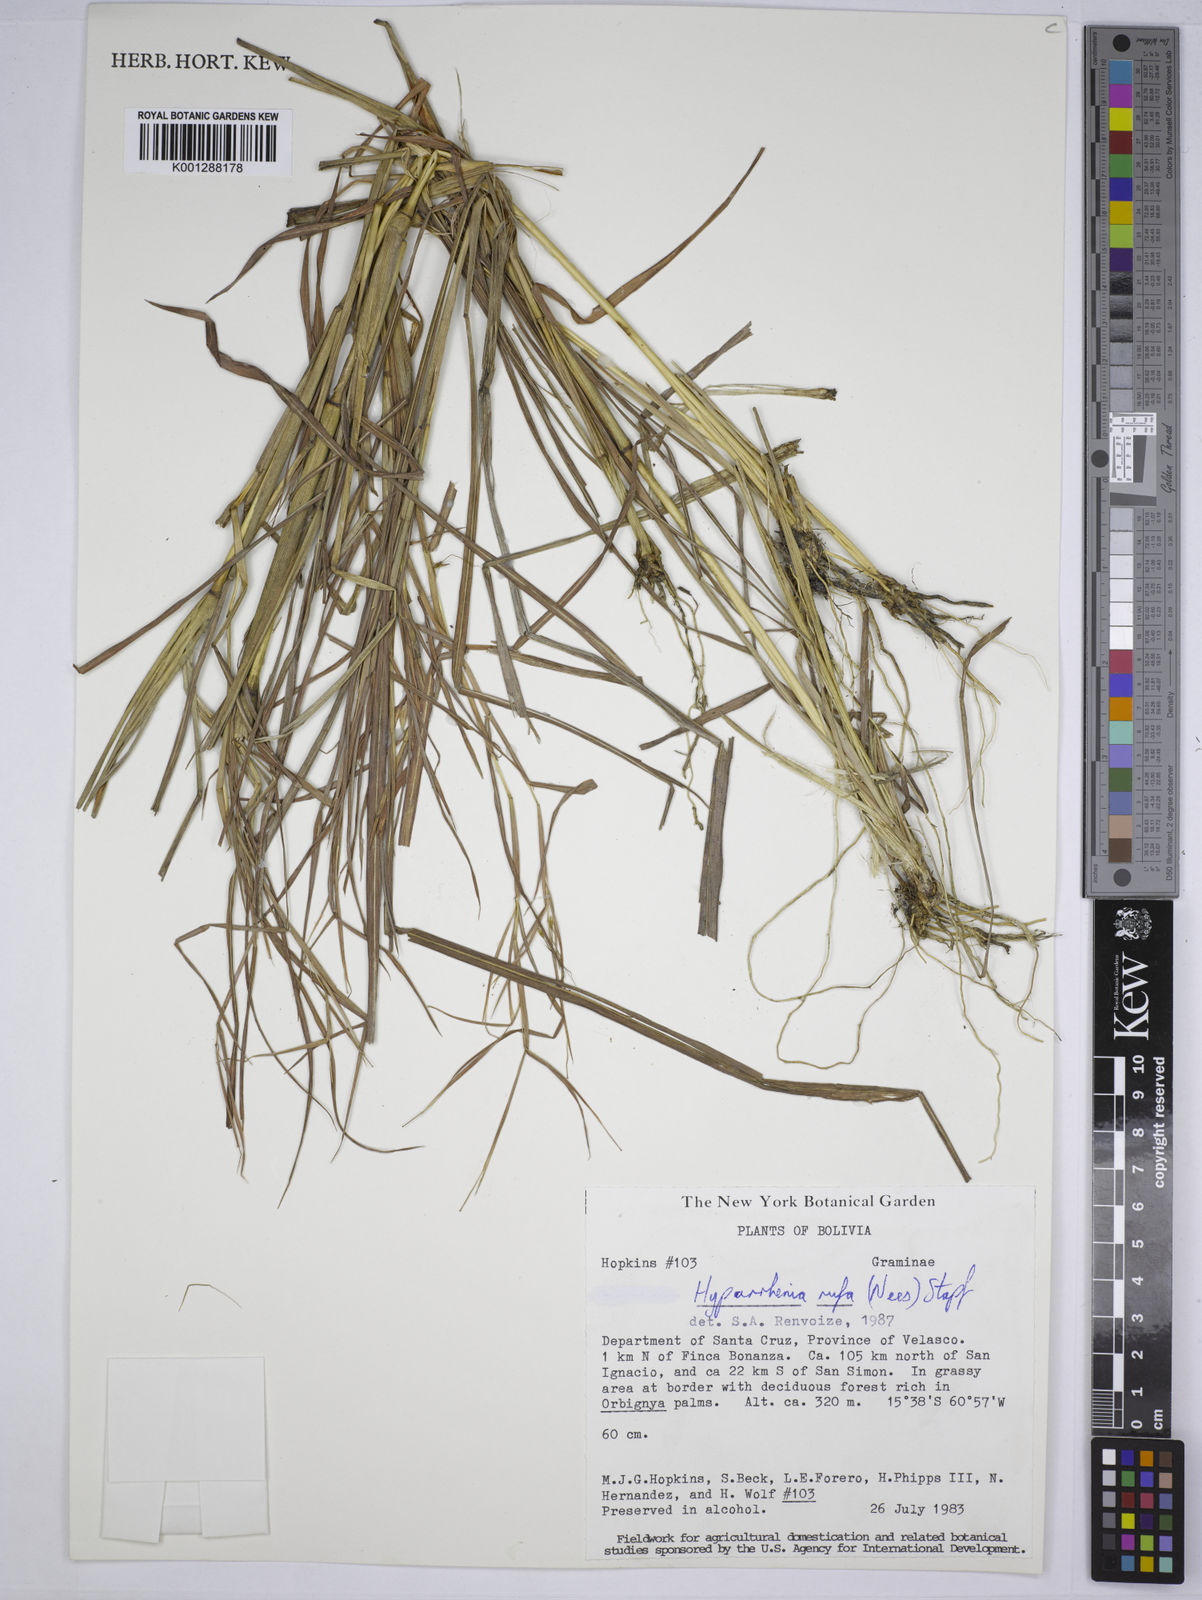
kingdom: Plantae
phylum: Tracheophyta
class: Liliopsida
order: Poales
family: Poaceae
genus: Hyparrhenia
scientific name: Hyparrhenia rufa
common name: Jaraguagrass
